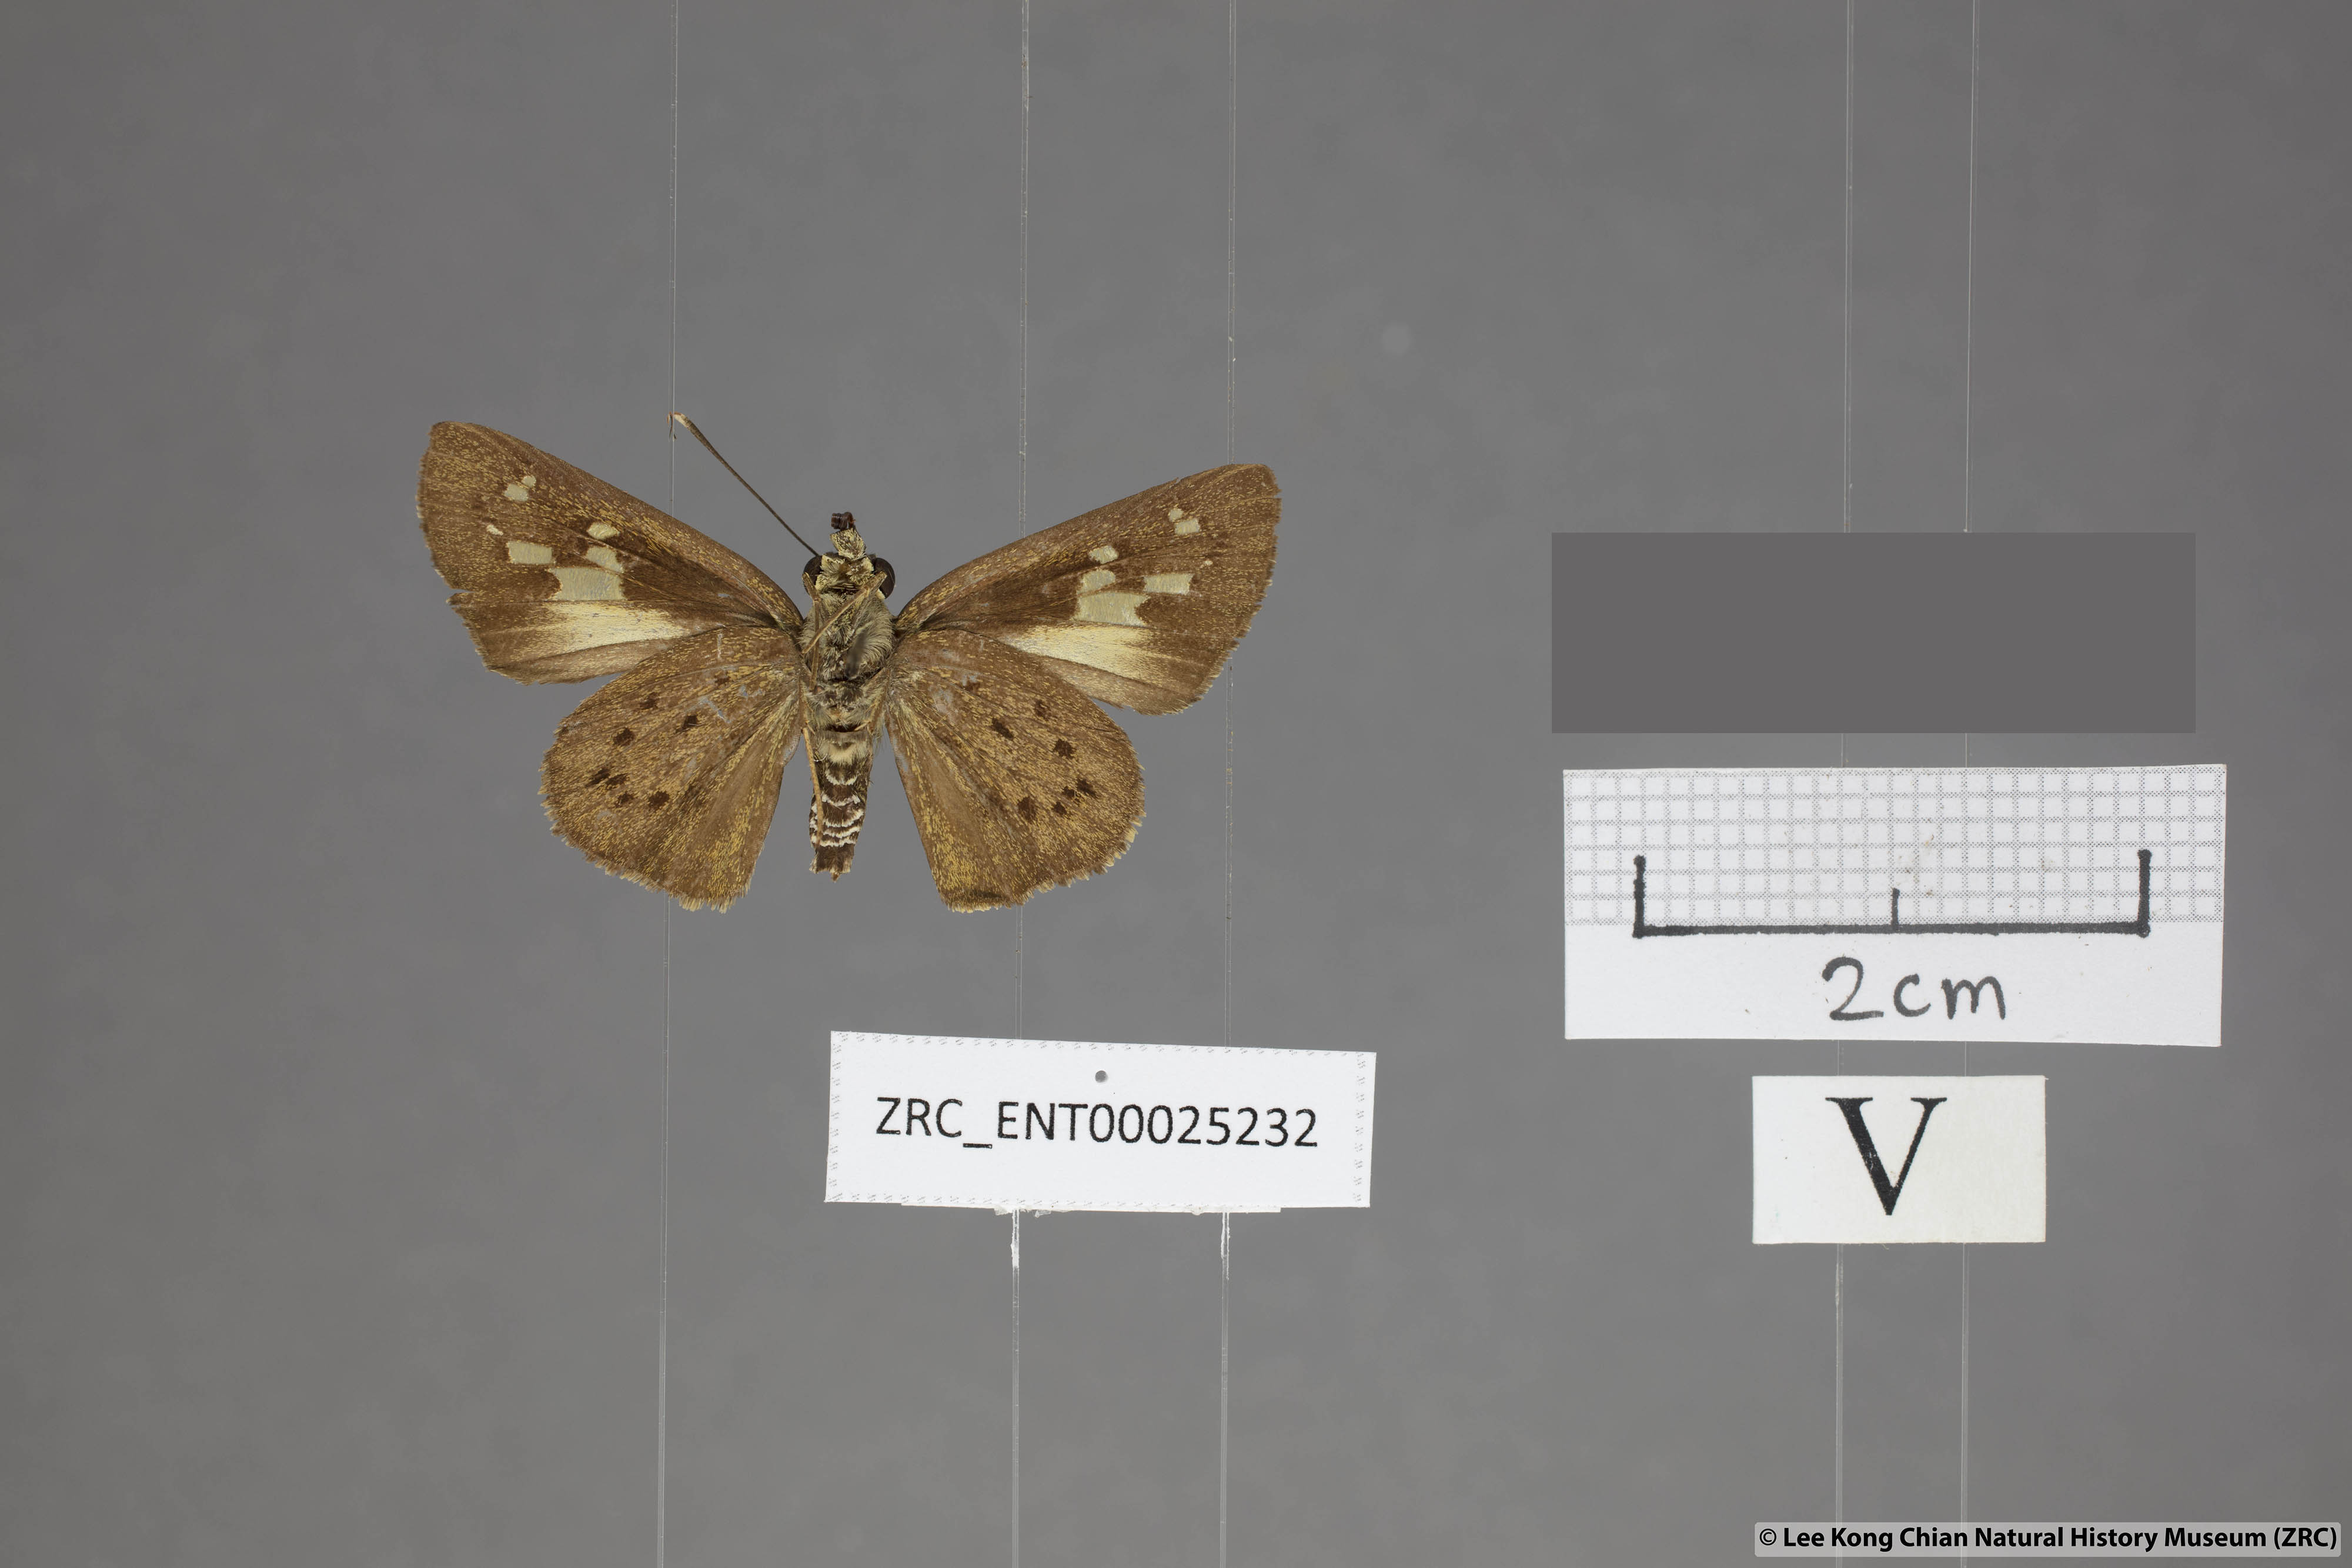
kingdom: Animalia
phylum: Arthropoda
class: Insecta
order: Lepidoptera
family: Hesperiidae
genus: Salanoemia
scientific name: Salanoemia fuscicornis
